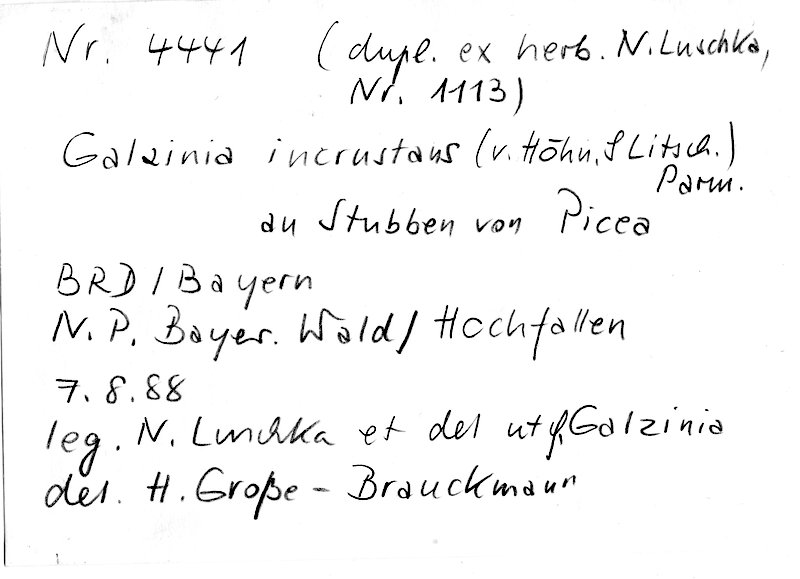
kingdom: Plantae
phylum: Tracheophyta
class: Pinopsida
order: Pinales
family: Pinaceae
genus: Picea
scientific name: Picea
